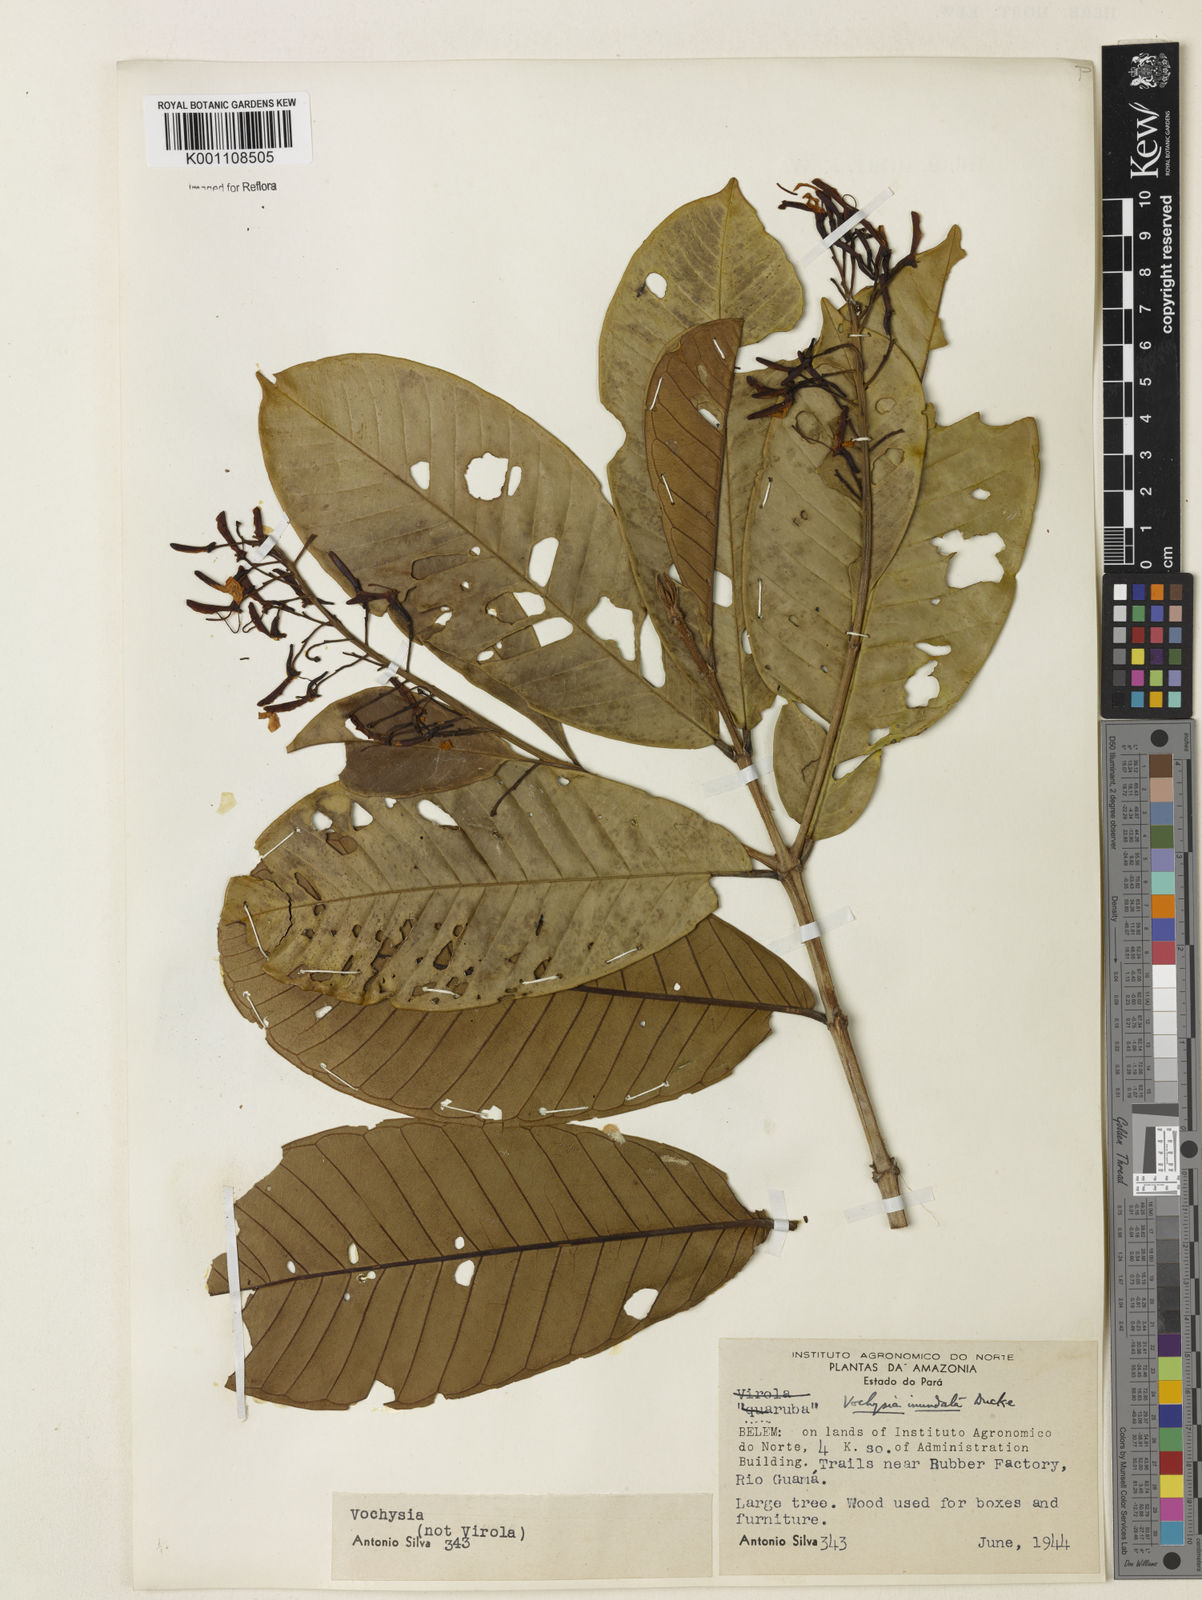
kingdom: Plantae
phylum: Tracheophyta
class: Magnoliopsida
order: Myrtales
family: Vochysiaceae
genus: Vochysia
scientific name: Vochysia inundata
